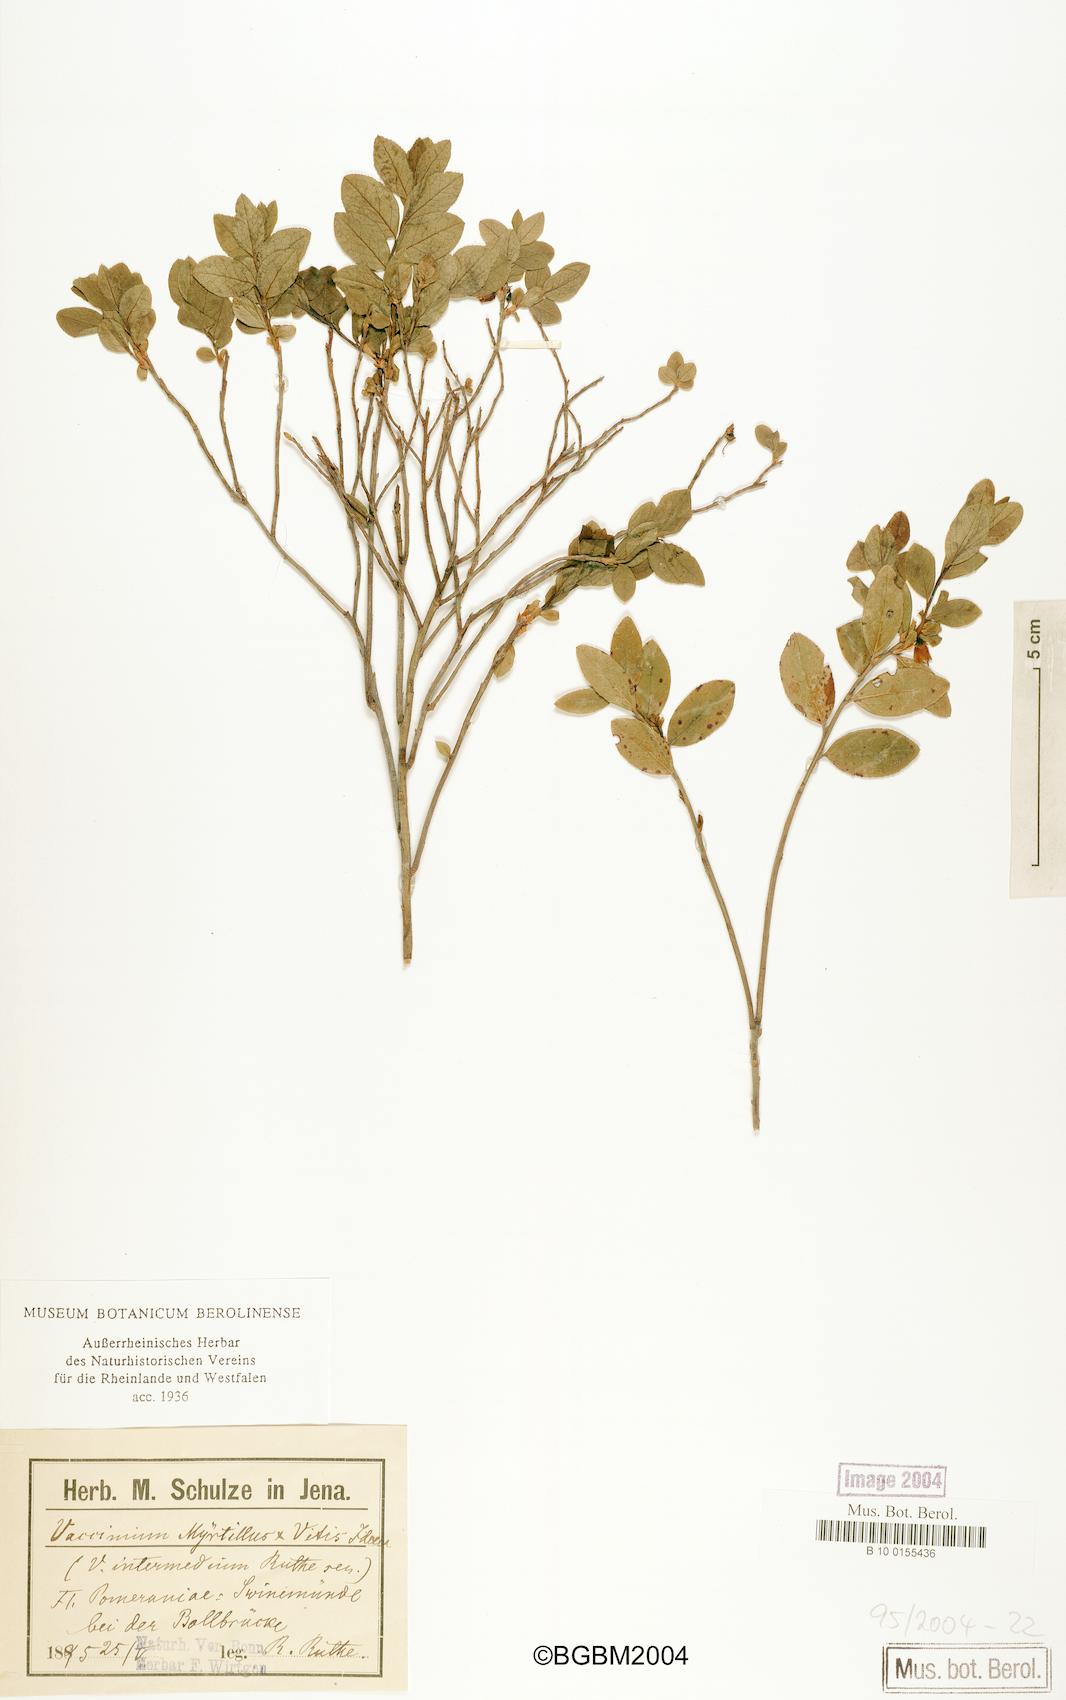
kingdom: Plantae
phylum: Tracheophyta
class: Magnoliopsida
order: Ericales
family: Ericaceae
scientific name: Ericaceae
